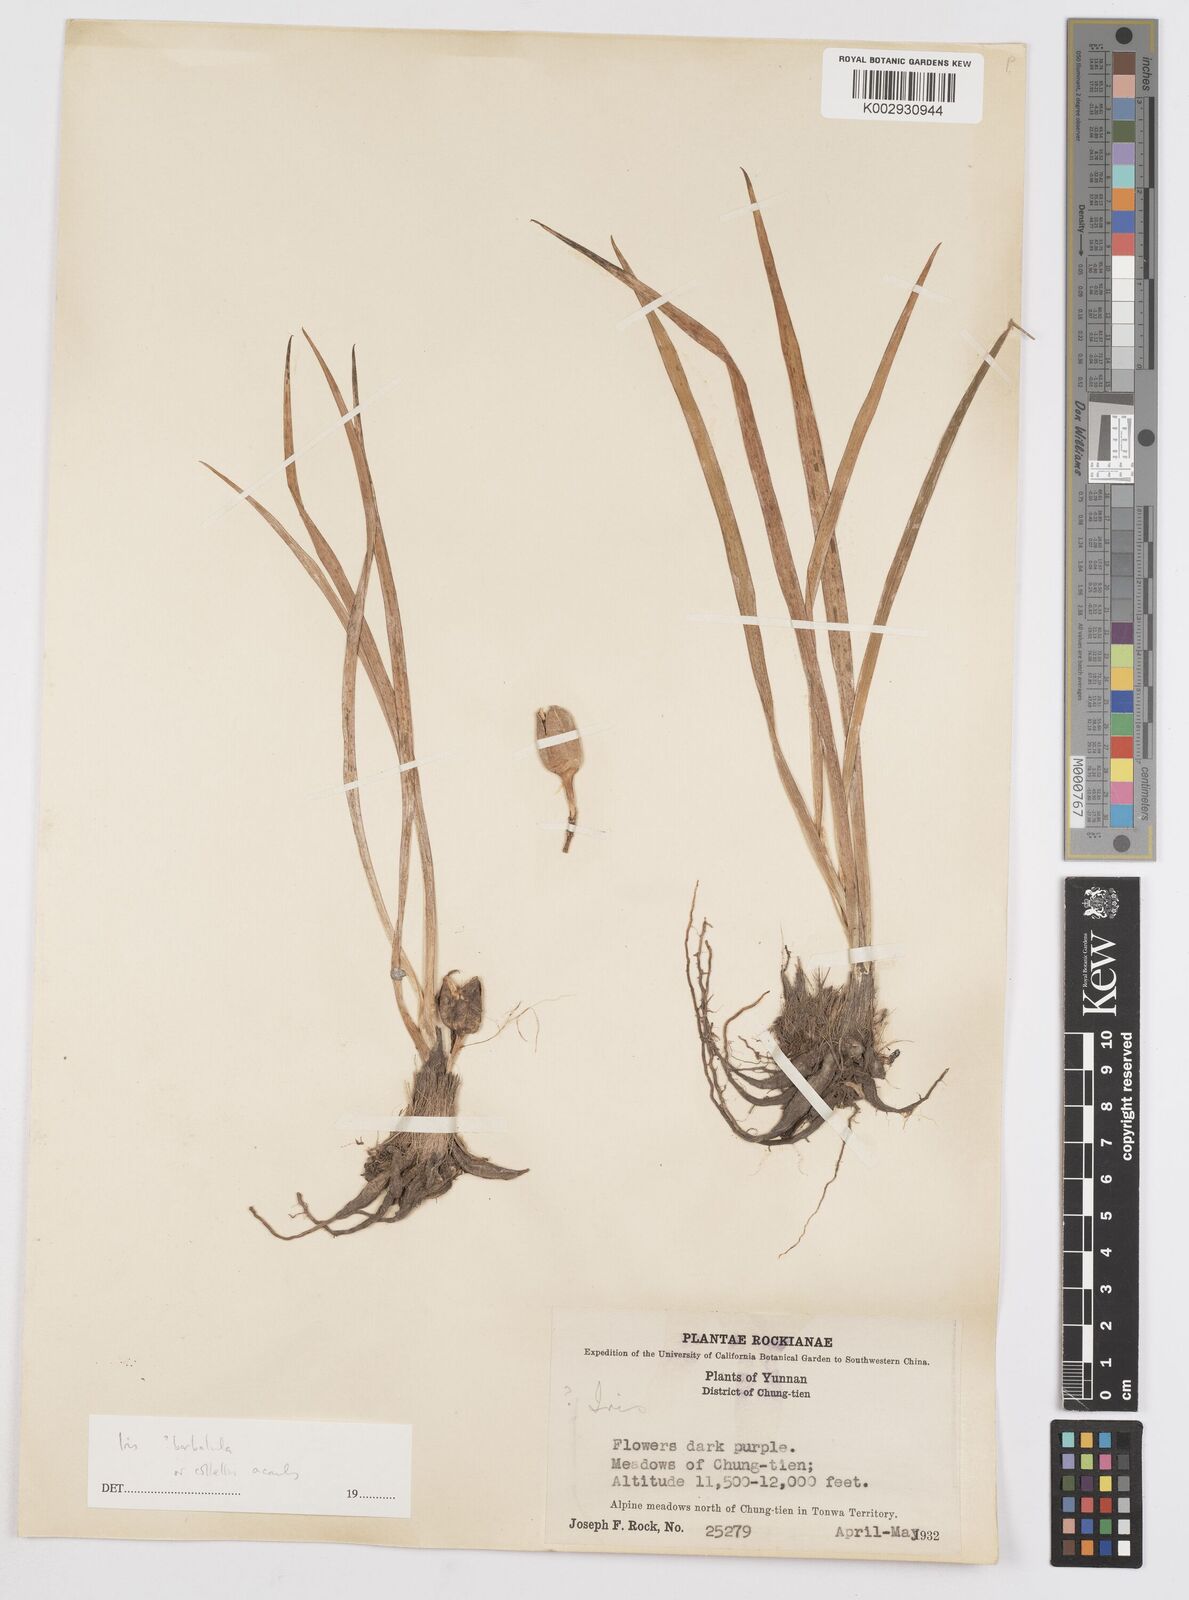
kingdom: Plantae
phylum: Tracheophyta
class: Liliopsida
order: Asparagales
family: Iridaceae
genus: Iris
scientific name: Iris collettii
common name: Plateau iris
